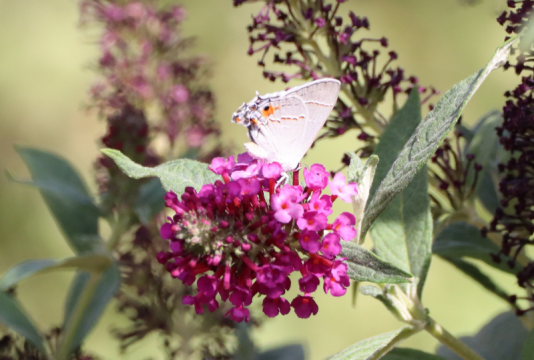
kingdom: Animalia
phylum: Arthropoda
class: Insecta
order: Lepidoptera
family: Lycaenidae
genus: Strymon
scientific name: Strymon melinus
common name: Gray Hairstreak
